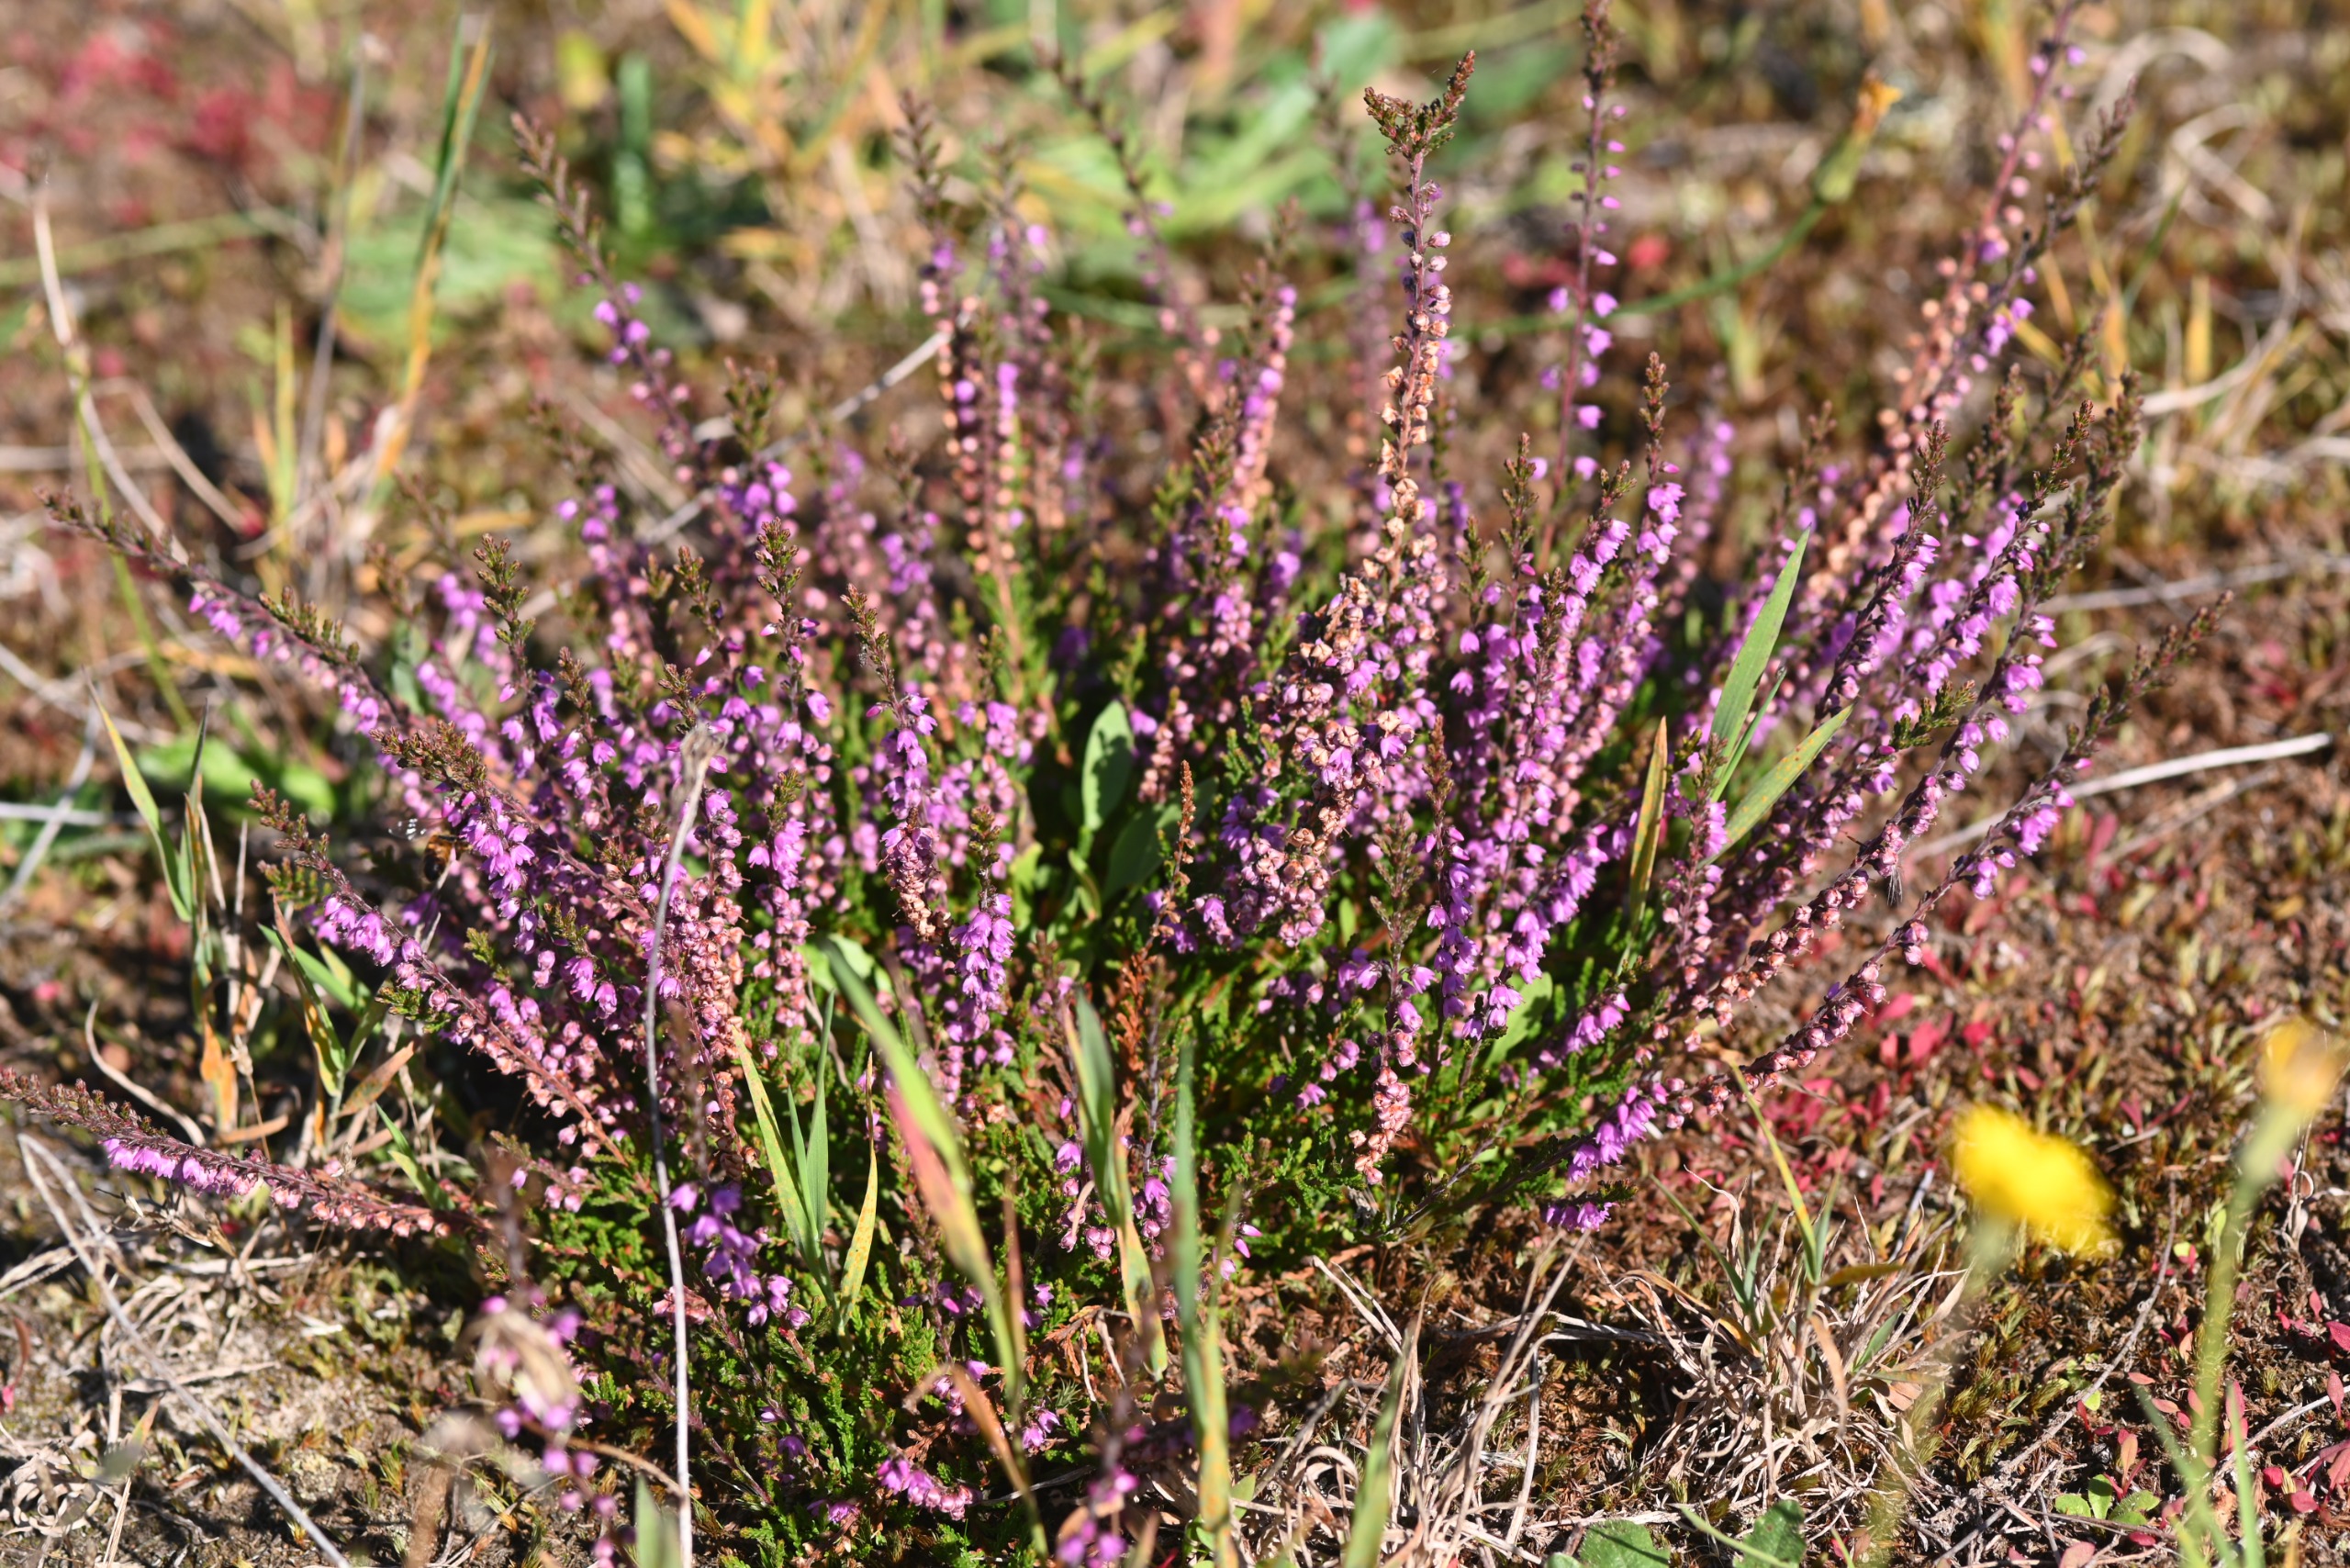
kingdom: Plantae
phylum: Tracheophyta
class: Magnoliopsida
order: Ericales
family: Ericaceae
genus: Calluna
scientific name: Calluna vulgaris
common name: Hedelyng
